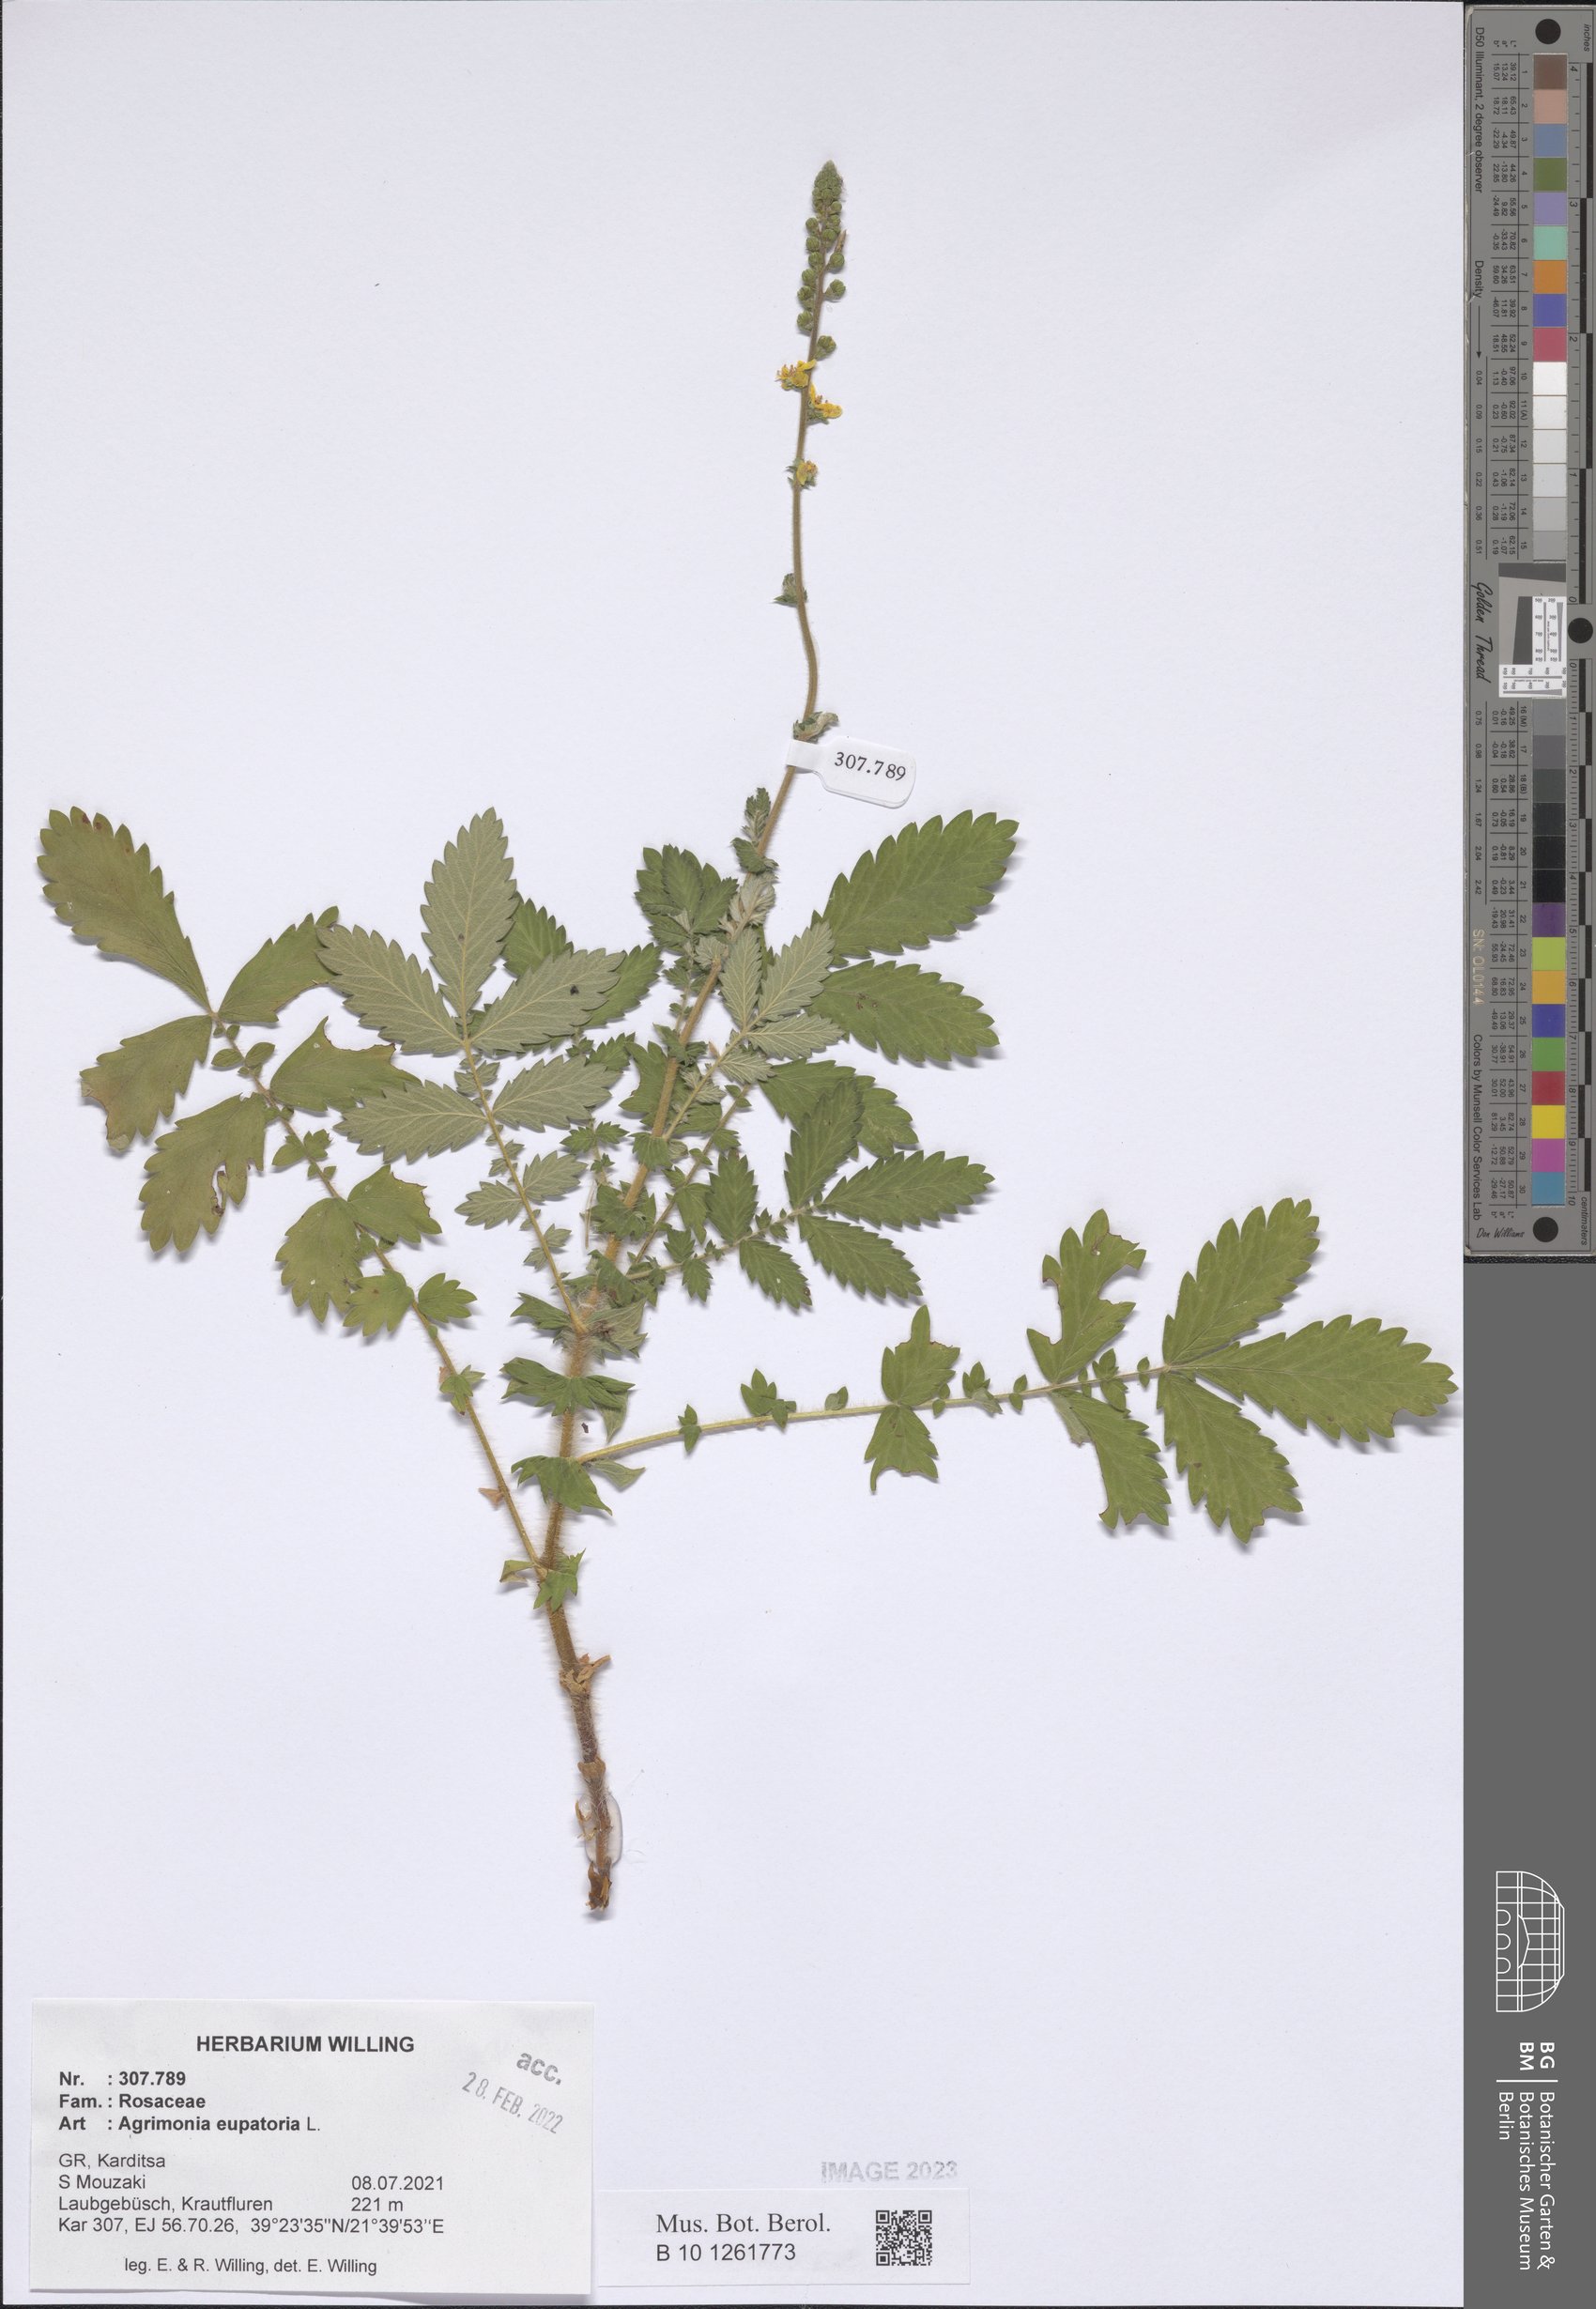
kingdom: Plantae
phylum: Tracheophyta
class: Magnoliopsida
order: Rosales
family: Rosaceae
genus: Agrimonia
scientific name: Agrimonia eupatoria
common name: Agrimony
